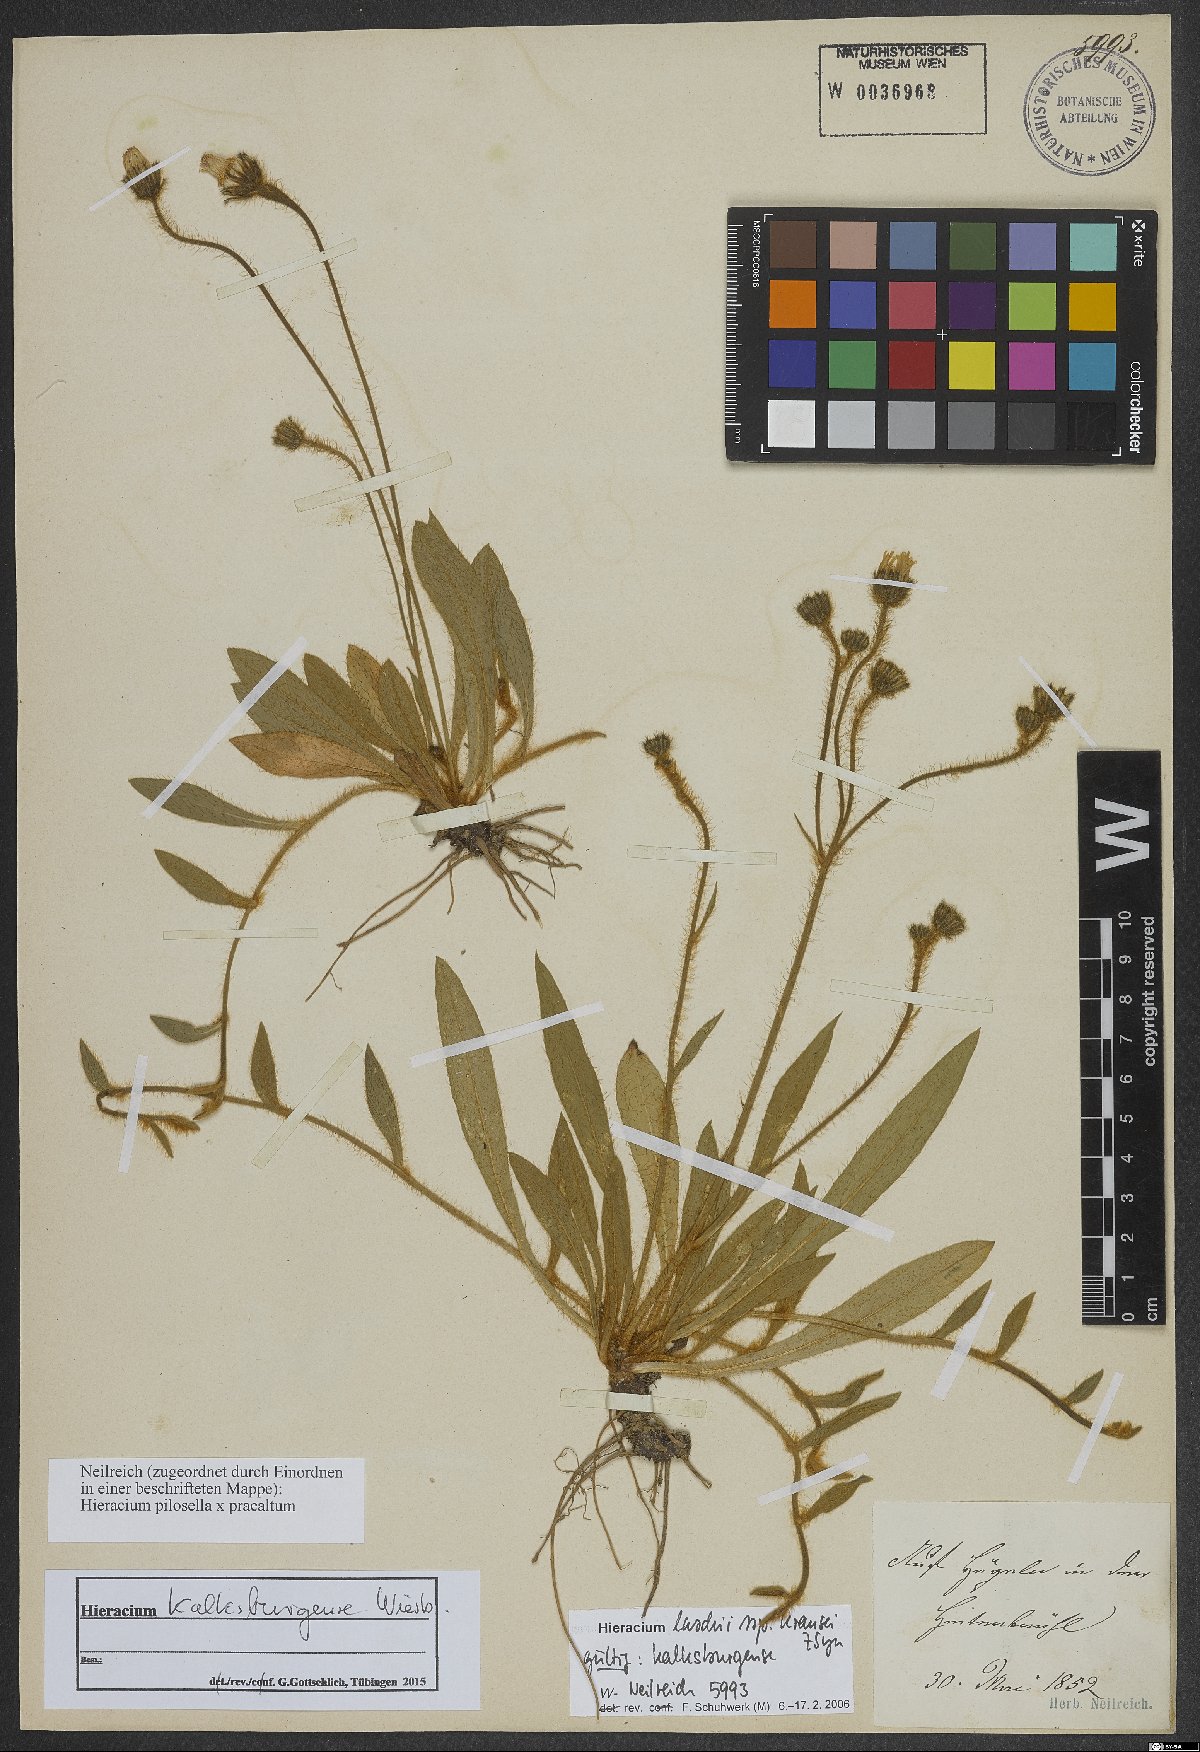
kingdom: Plantae
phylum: Tracheophyta
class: Magnoliopsida
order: Asterales
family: Asteraceae
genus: Pilosella
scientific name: Pilosella acutifolia
